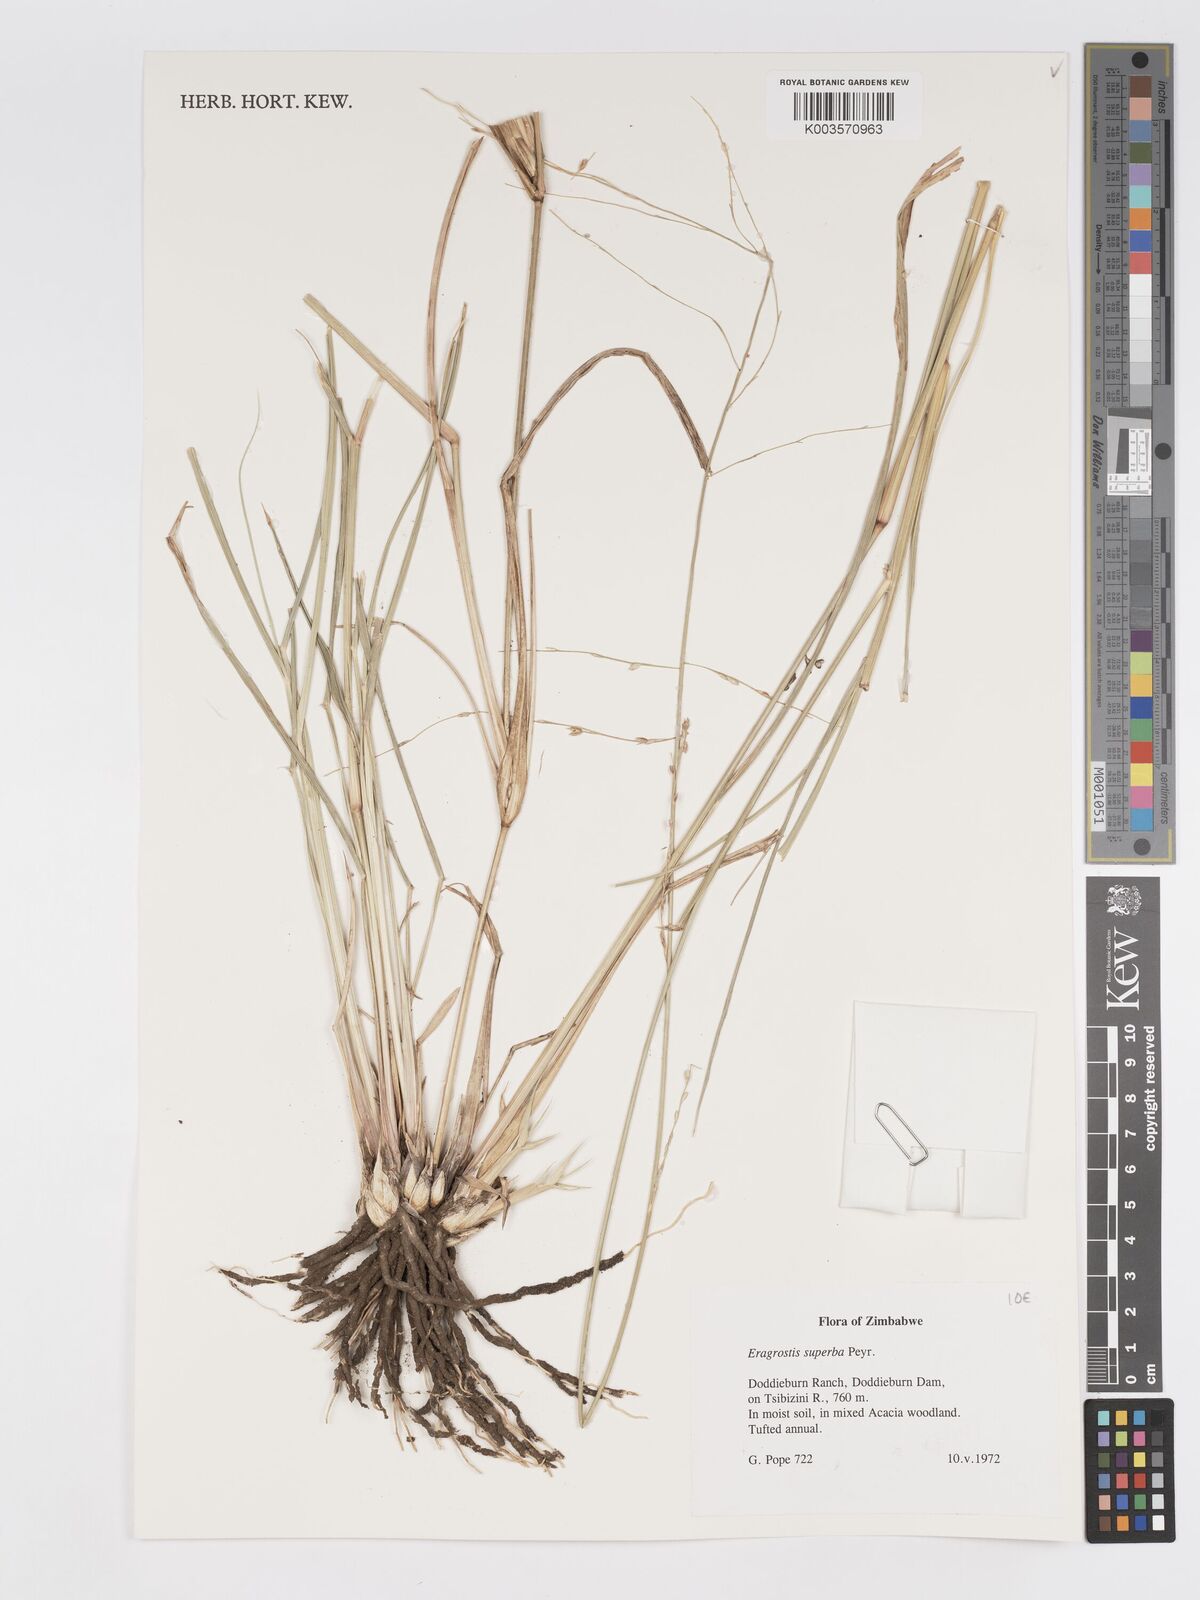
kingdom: Plantae
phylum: Tracheophyta
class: Liliopsida
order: Poales
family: Poaceae
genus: Eragrostis
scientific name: Eragrostis superba
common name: Wilman lovegrass
